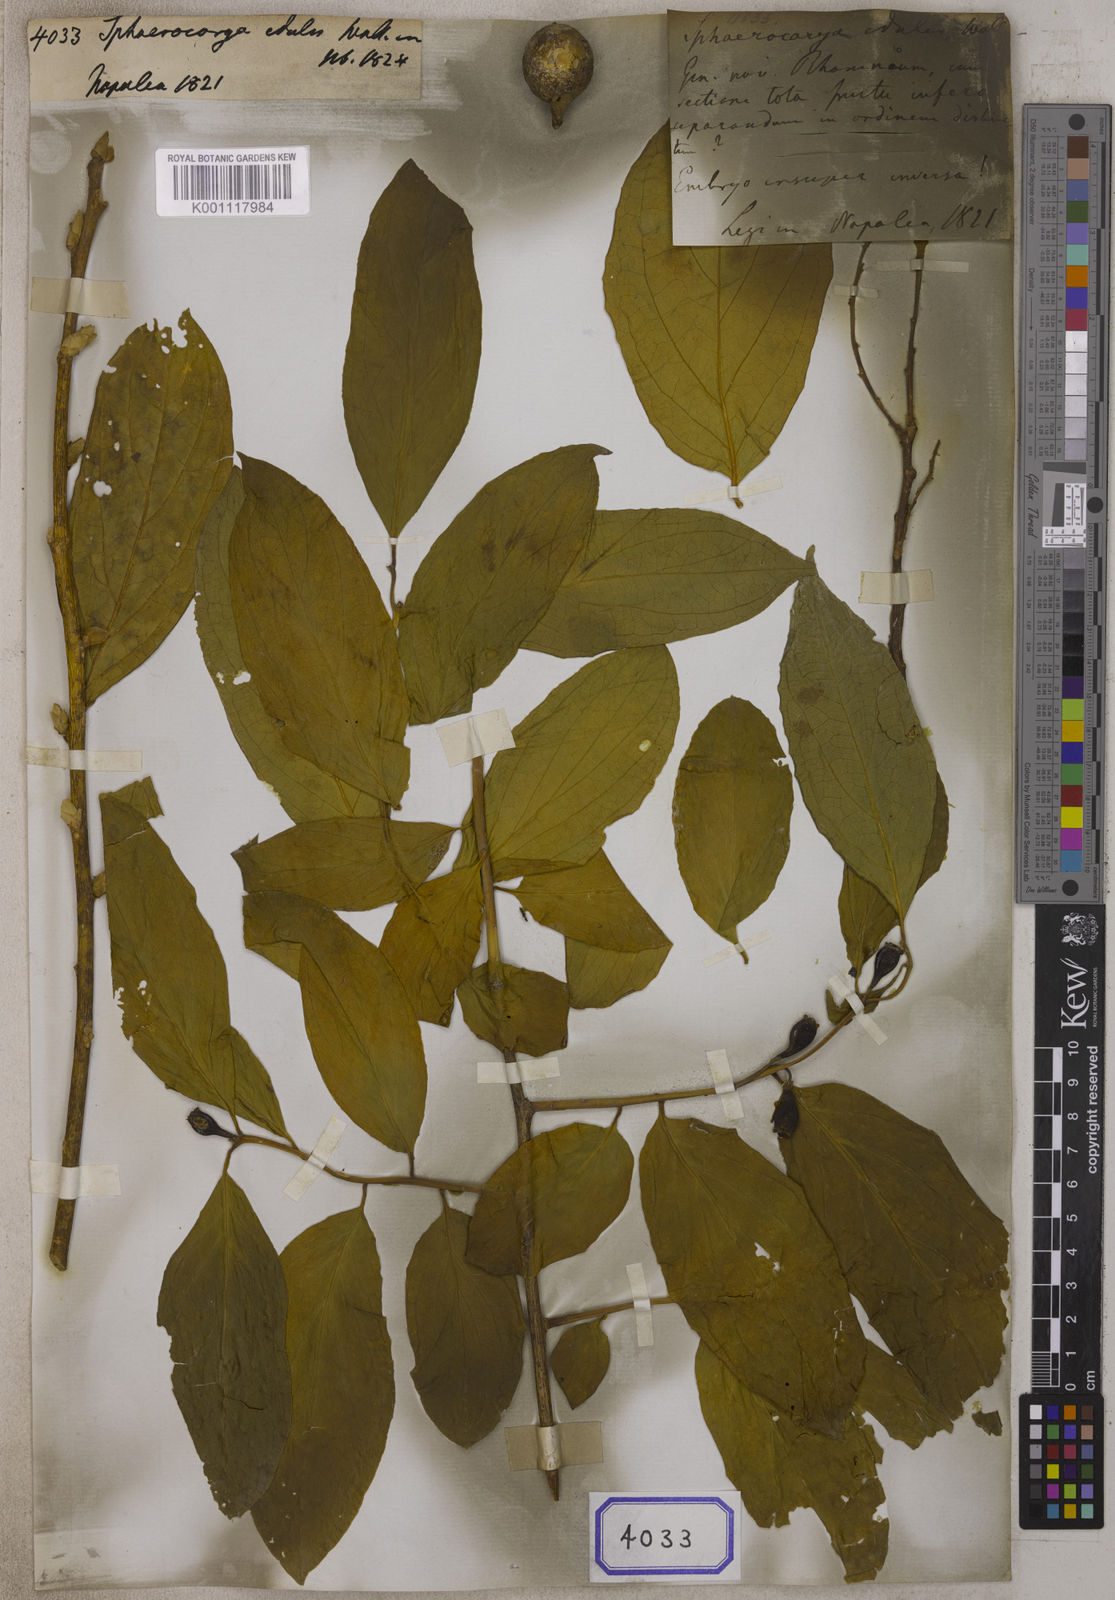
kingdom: Plantae
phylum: Tracheophyta
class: Magnoliopsida
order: Santalales
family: Cervantesiaceae
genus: Pyrularia
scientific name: Pyrularia edulis
